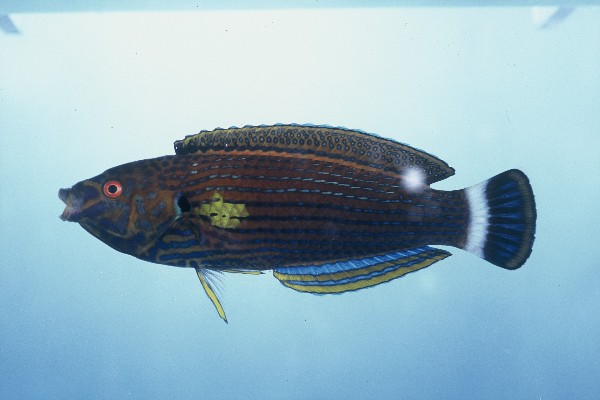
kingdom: Animalia
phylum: Chordata
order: Perciformes
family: Labridae
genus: Anampses
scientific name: Anampses lineatus
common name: Lined wrasse
